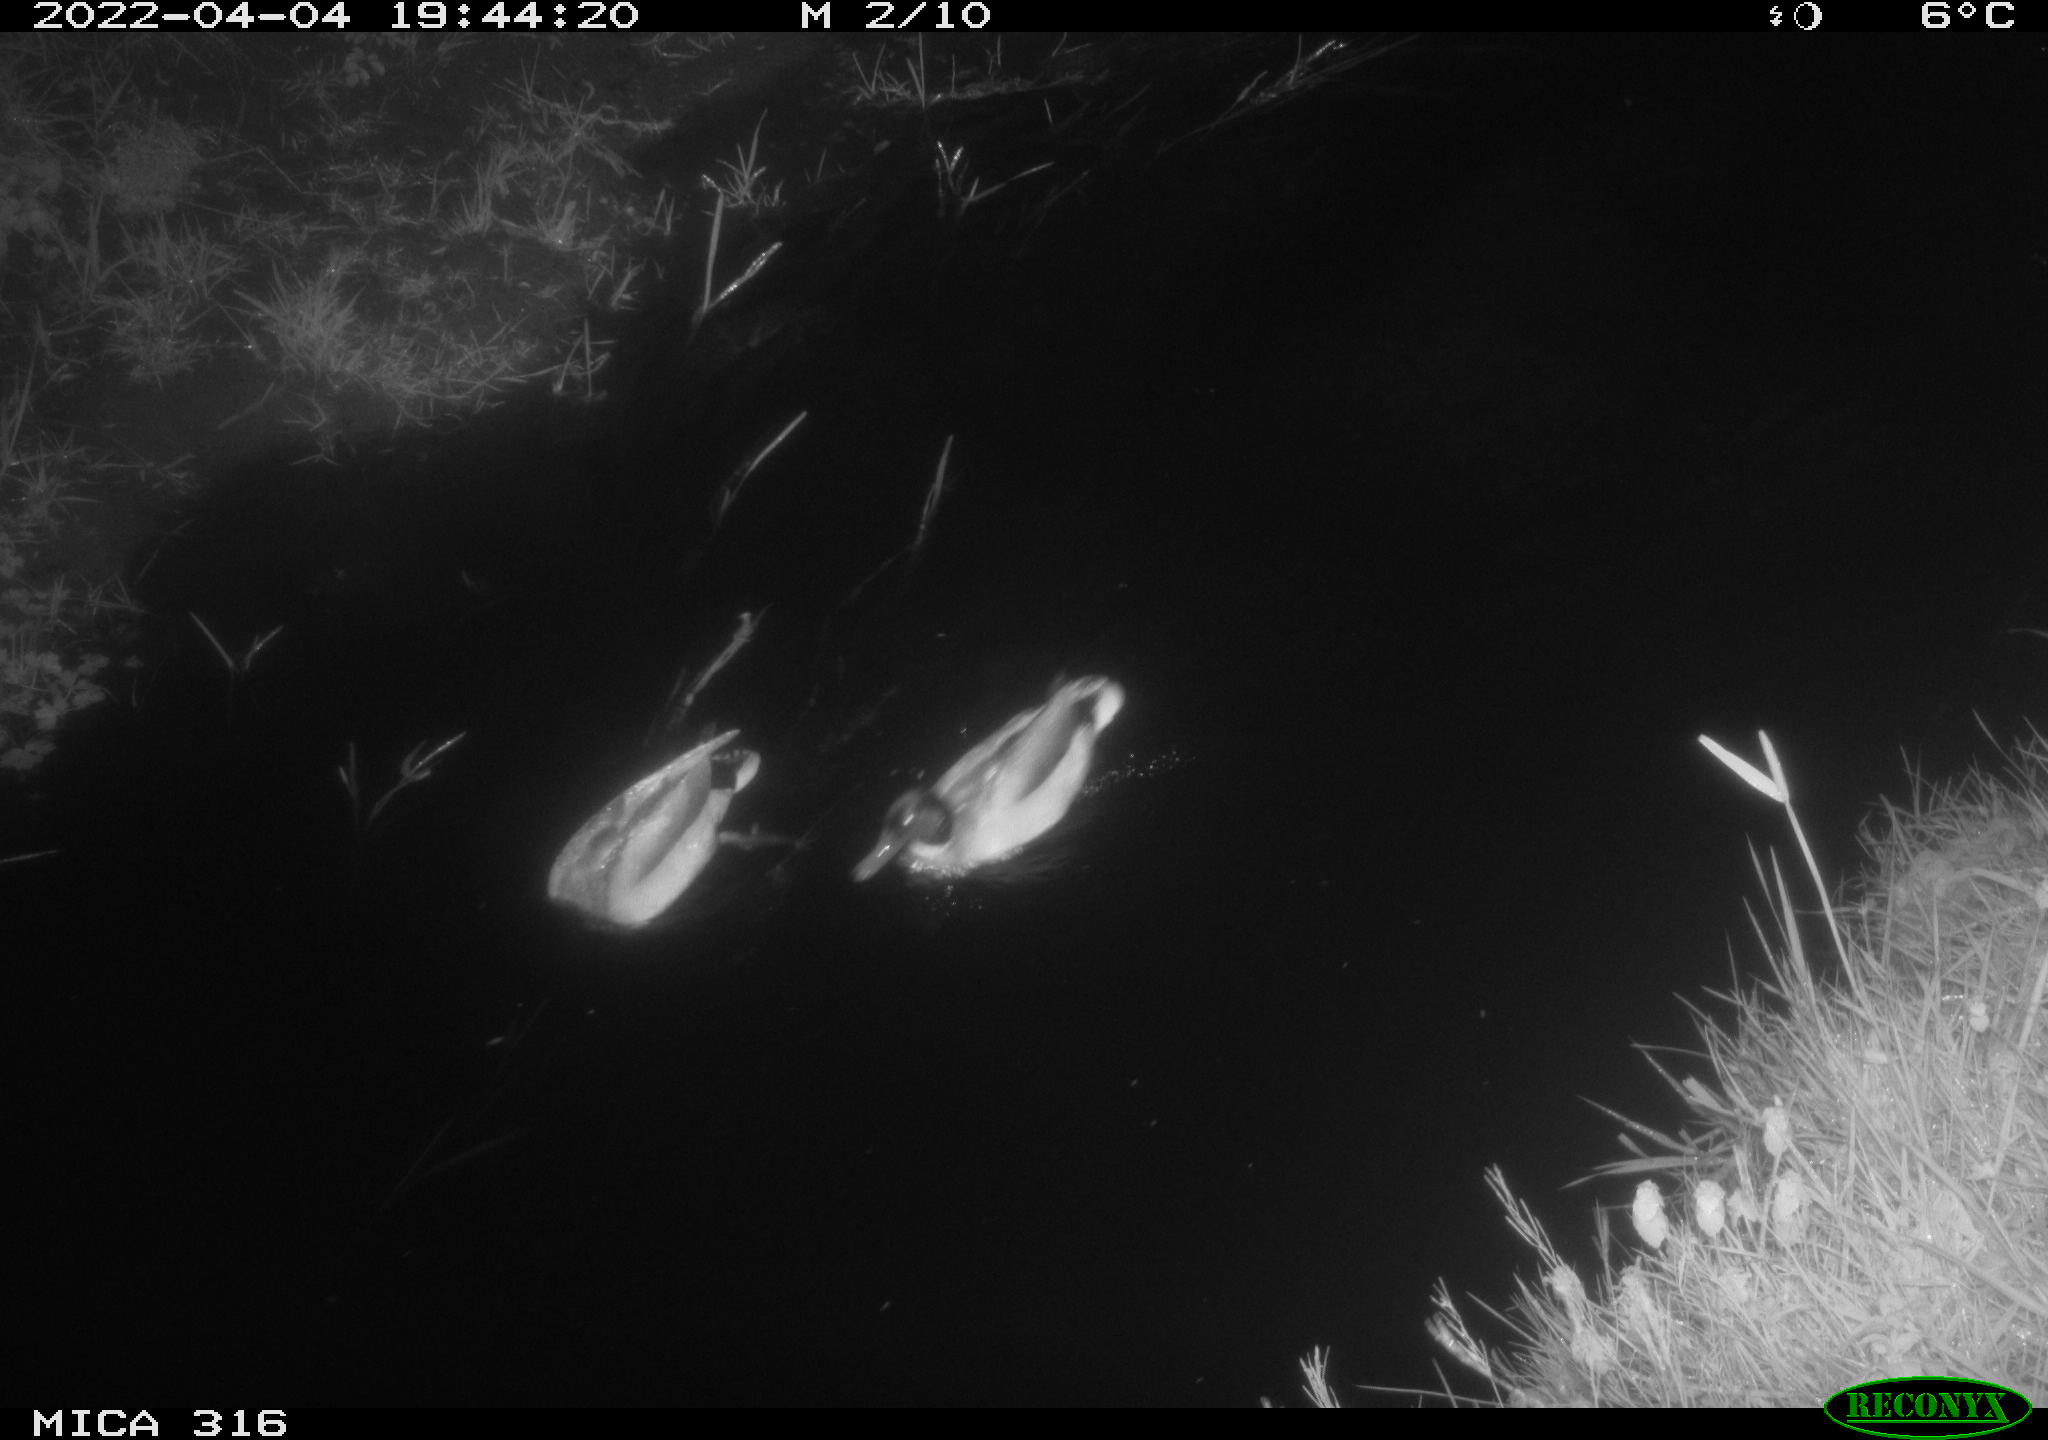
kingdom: Animalia
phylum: Chordata
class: Aves
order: Anseriformes
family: Anatidae
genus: Anas
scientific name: Anas platyrhynchos
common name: Mallard
